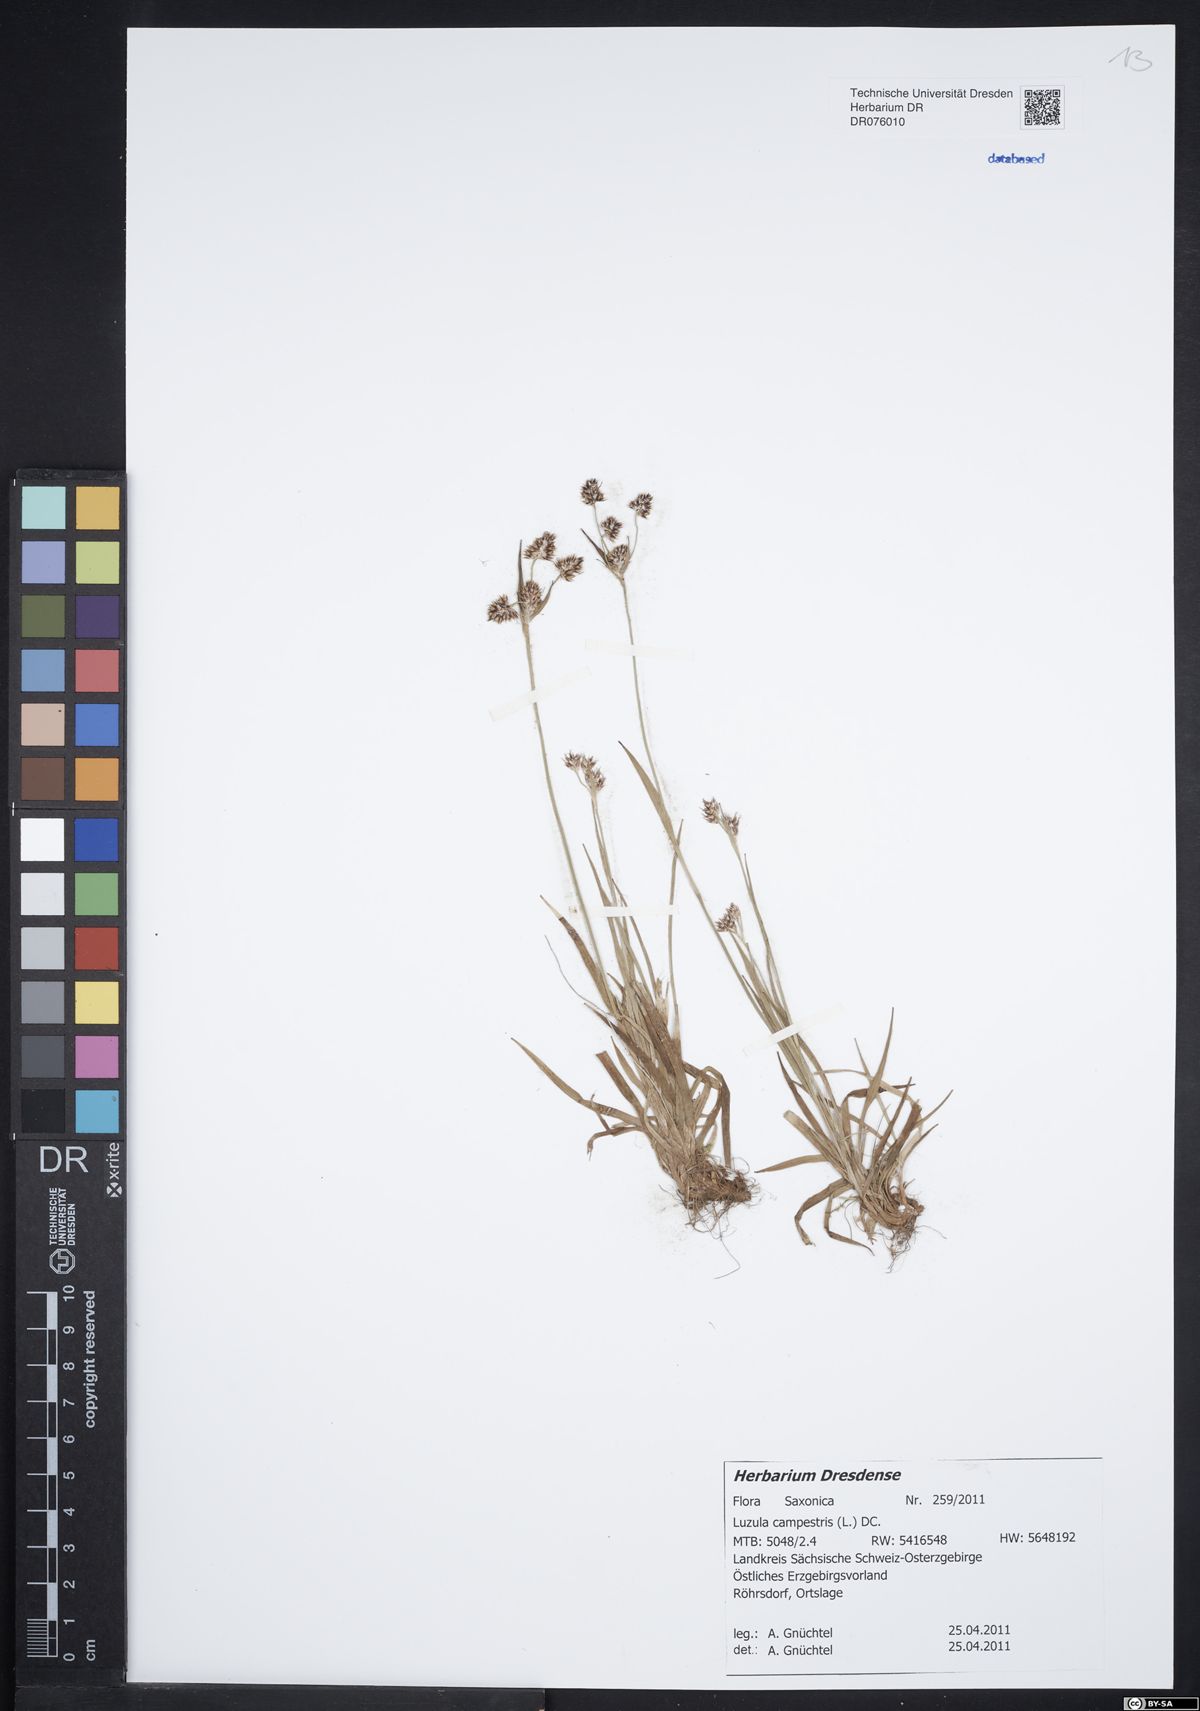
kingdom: Plantae
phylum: Tracheophyta
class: Liliopsida
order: Poales
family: Juncaceae
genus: Luzula
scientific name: Luzula campestris
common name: Field wood-rush
